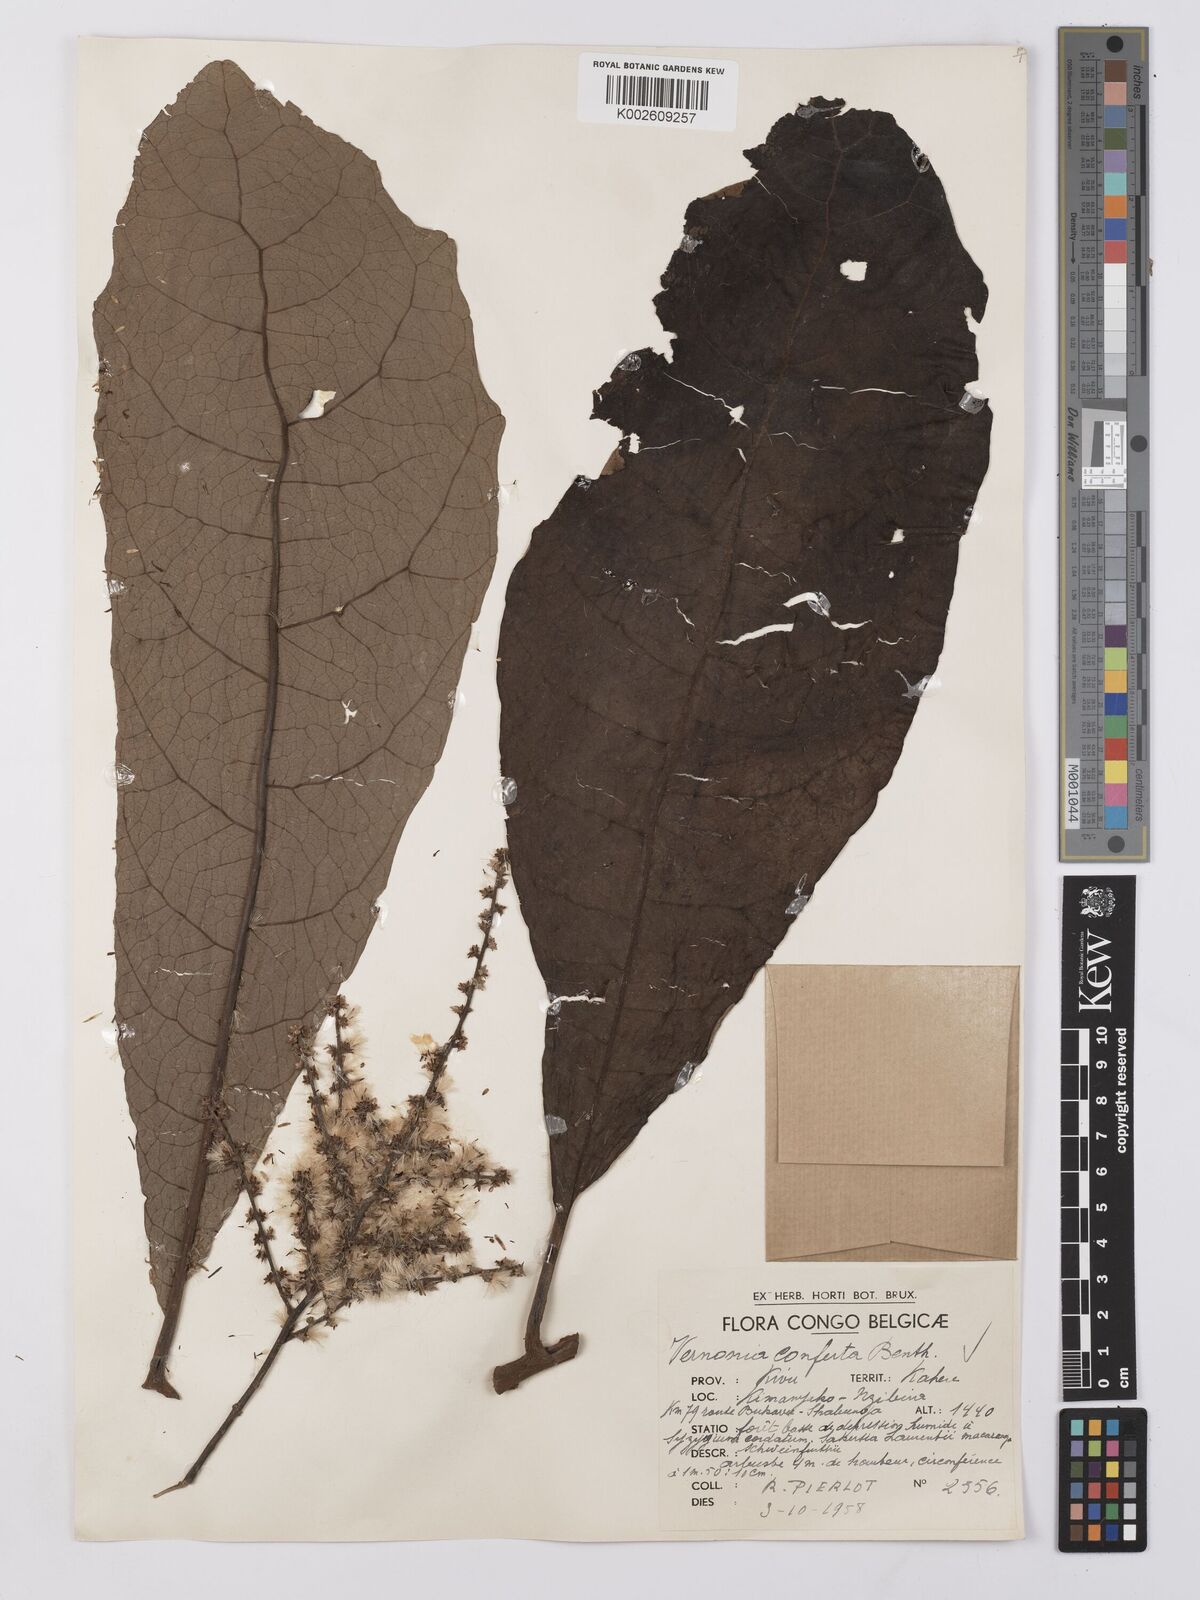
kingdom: Plantae
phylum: Tracheophyta
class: Magnoliopsida
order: Asterales
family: Asteraceae
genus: Monosis
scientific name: Monosis conferta
